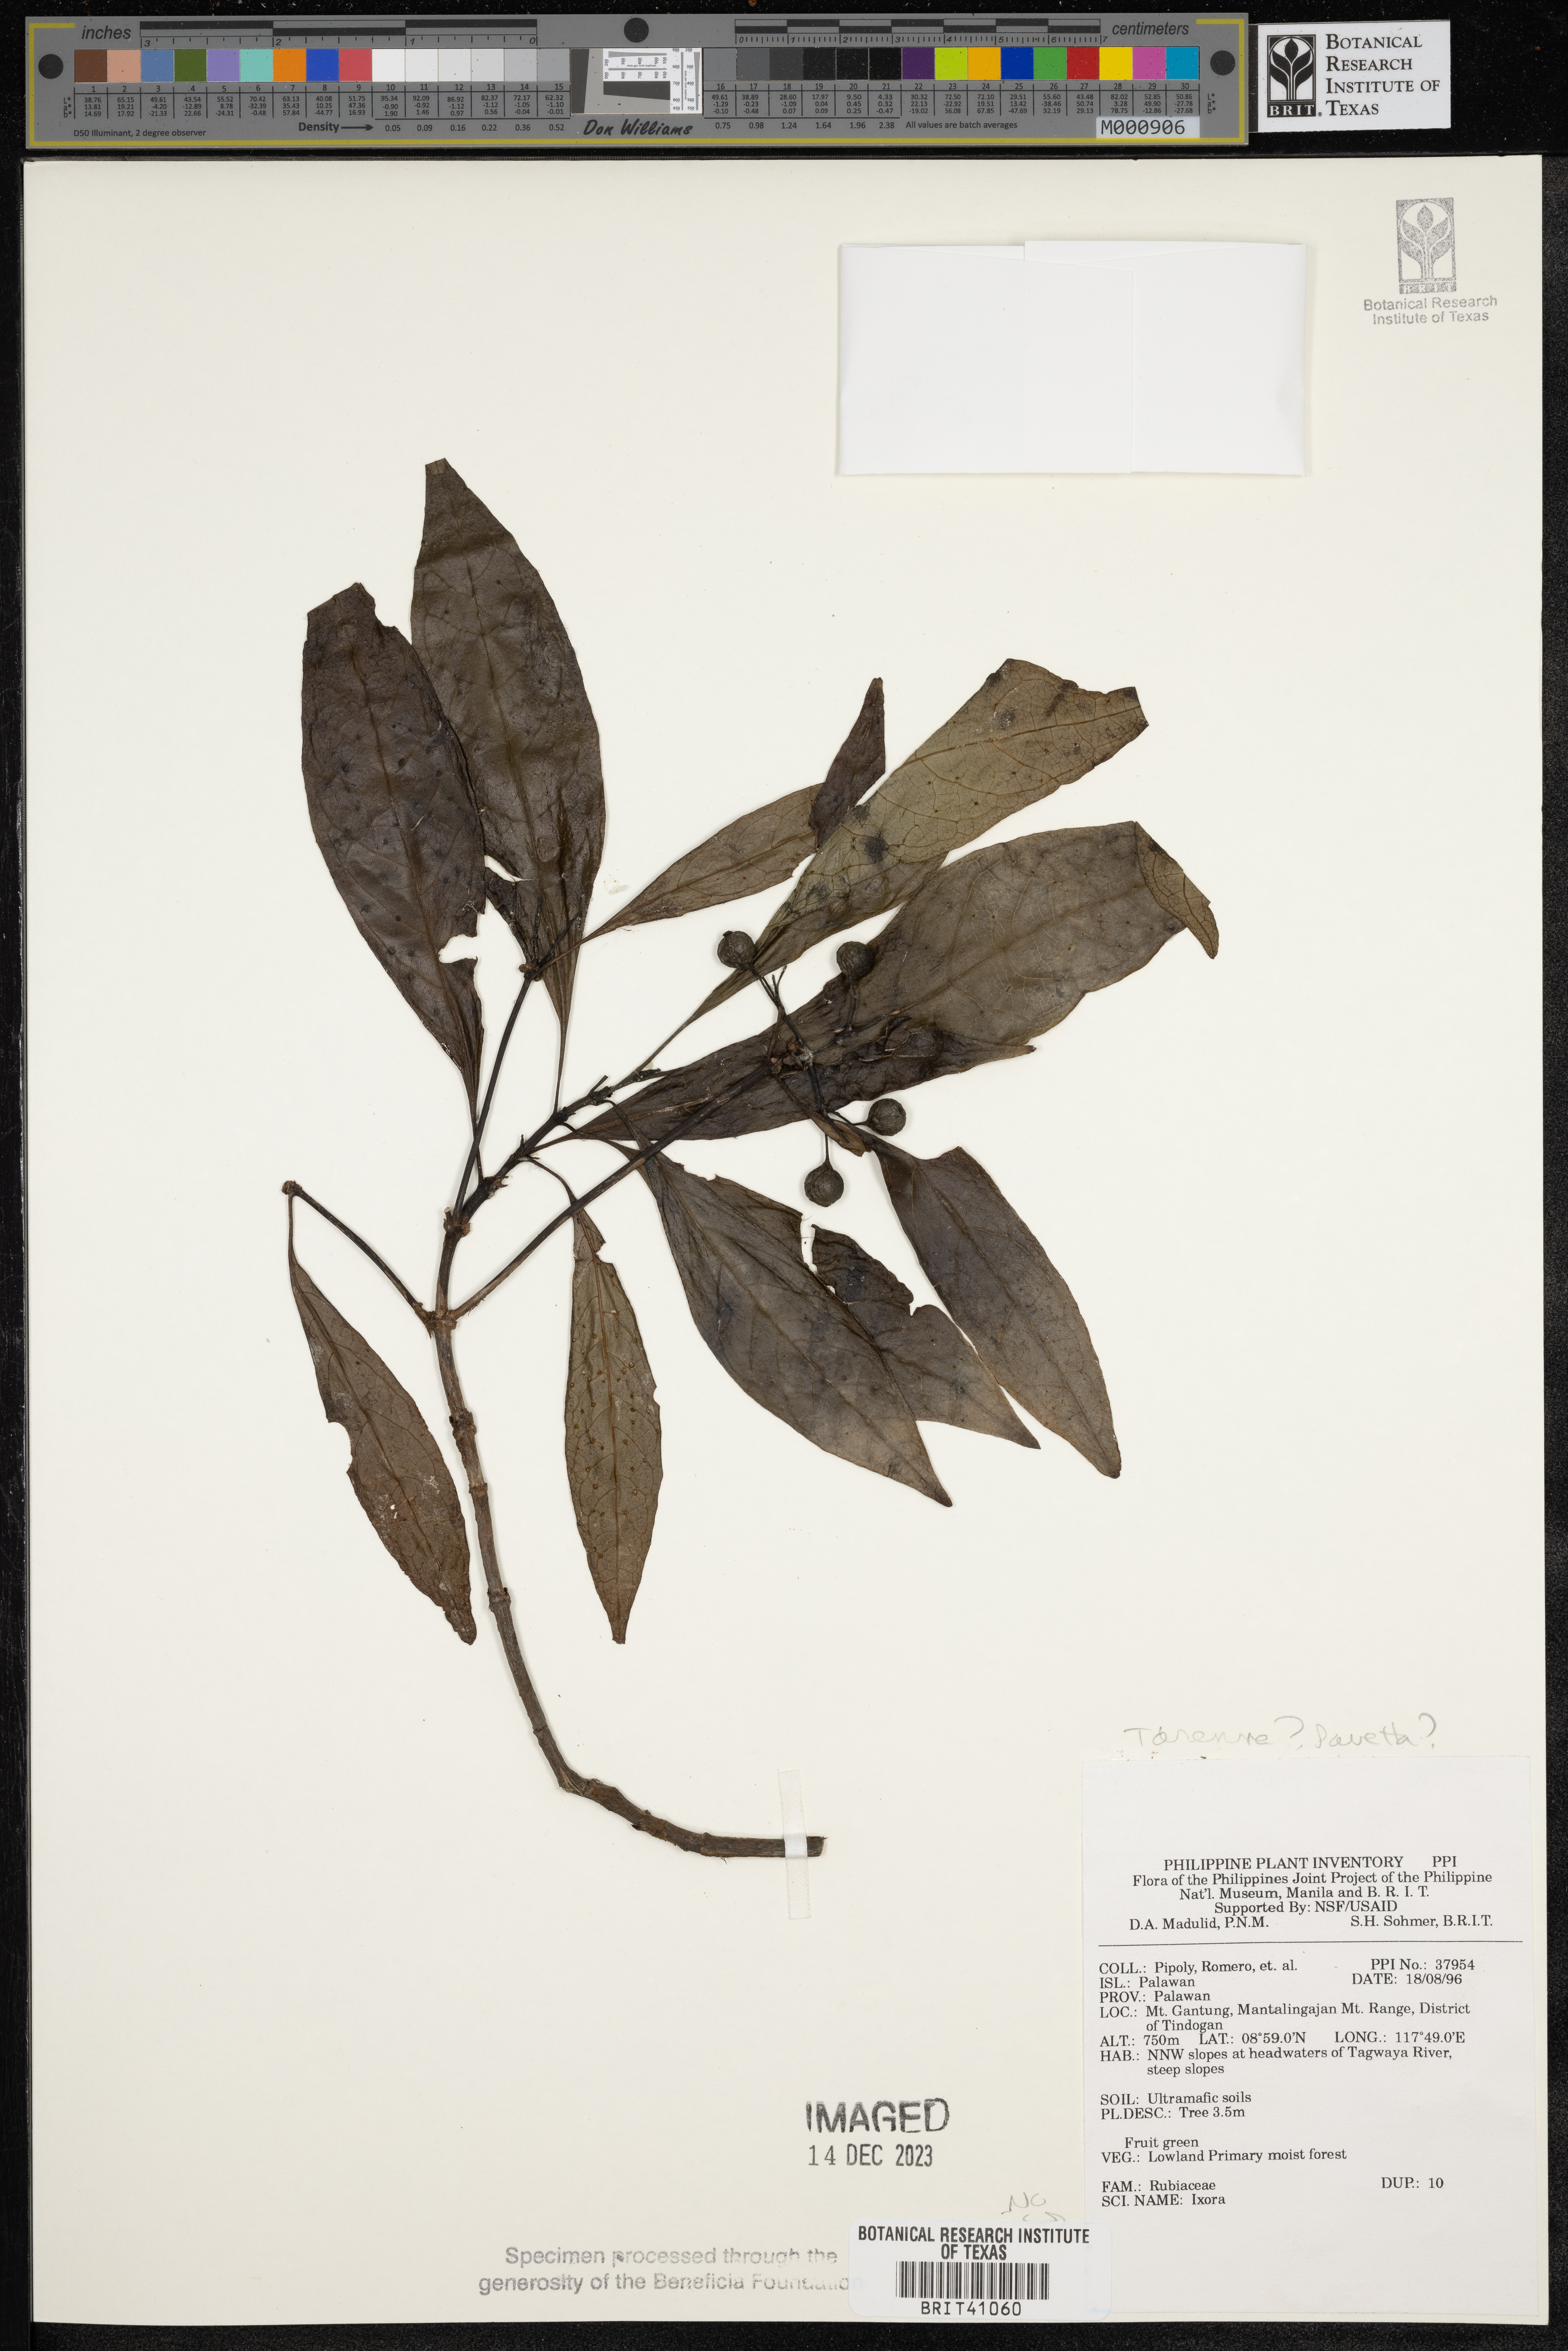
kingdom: Plantae
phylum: Tracheophyta
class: Magnoliopsida
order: Gentianales
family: Rubiaceae
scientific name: Rubiaceae
